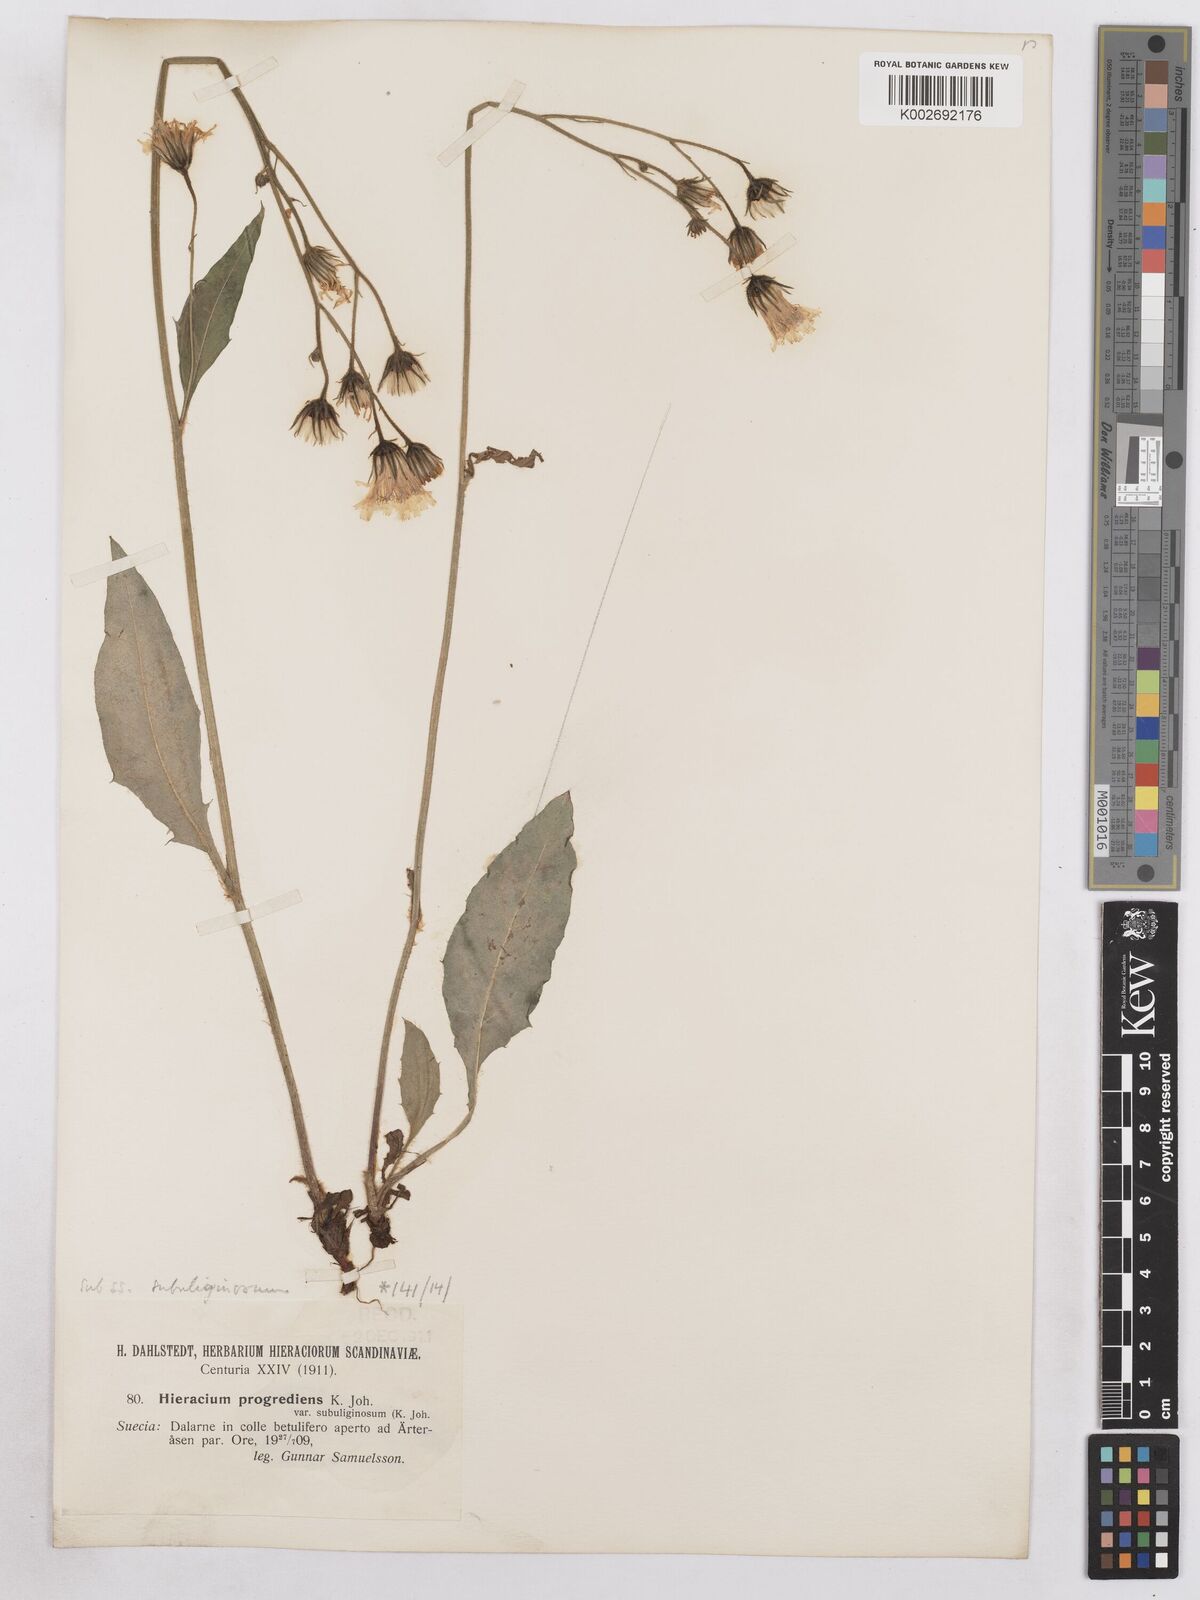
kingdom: Plantae
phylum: Tracheophyta
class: Magnoliopsida
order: Asterales
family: Asteraceae
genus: Hieracium
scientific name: Hieracium diaphanoides
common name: Fine-bracted hawkweed
